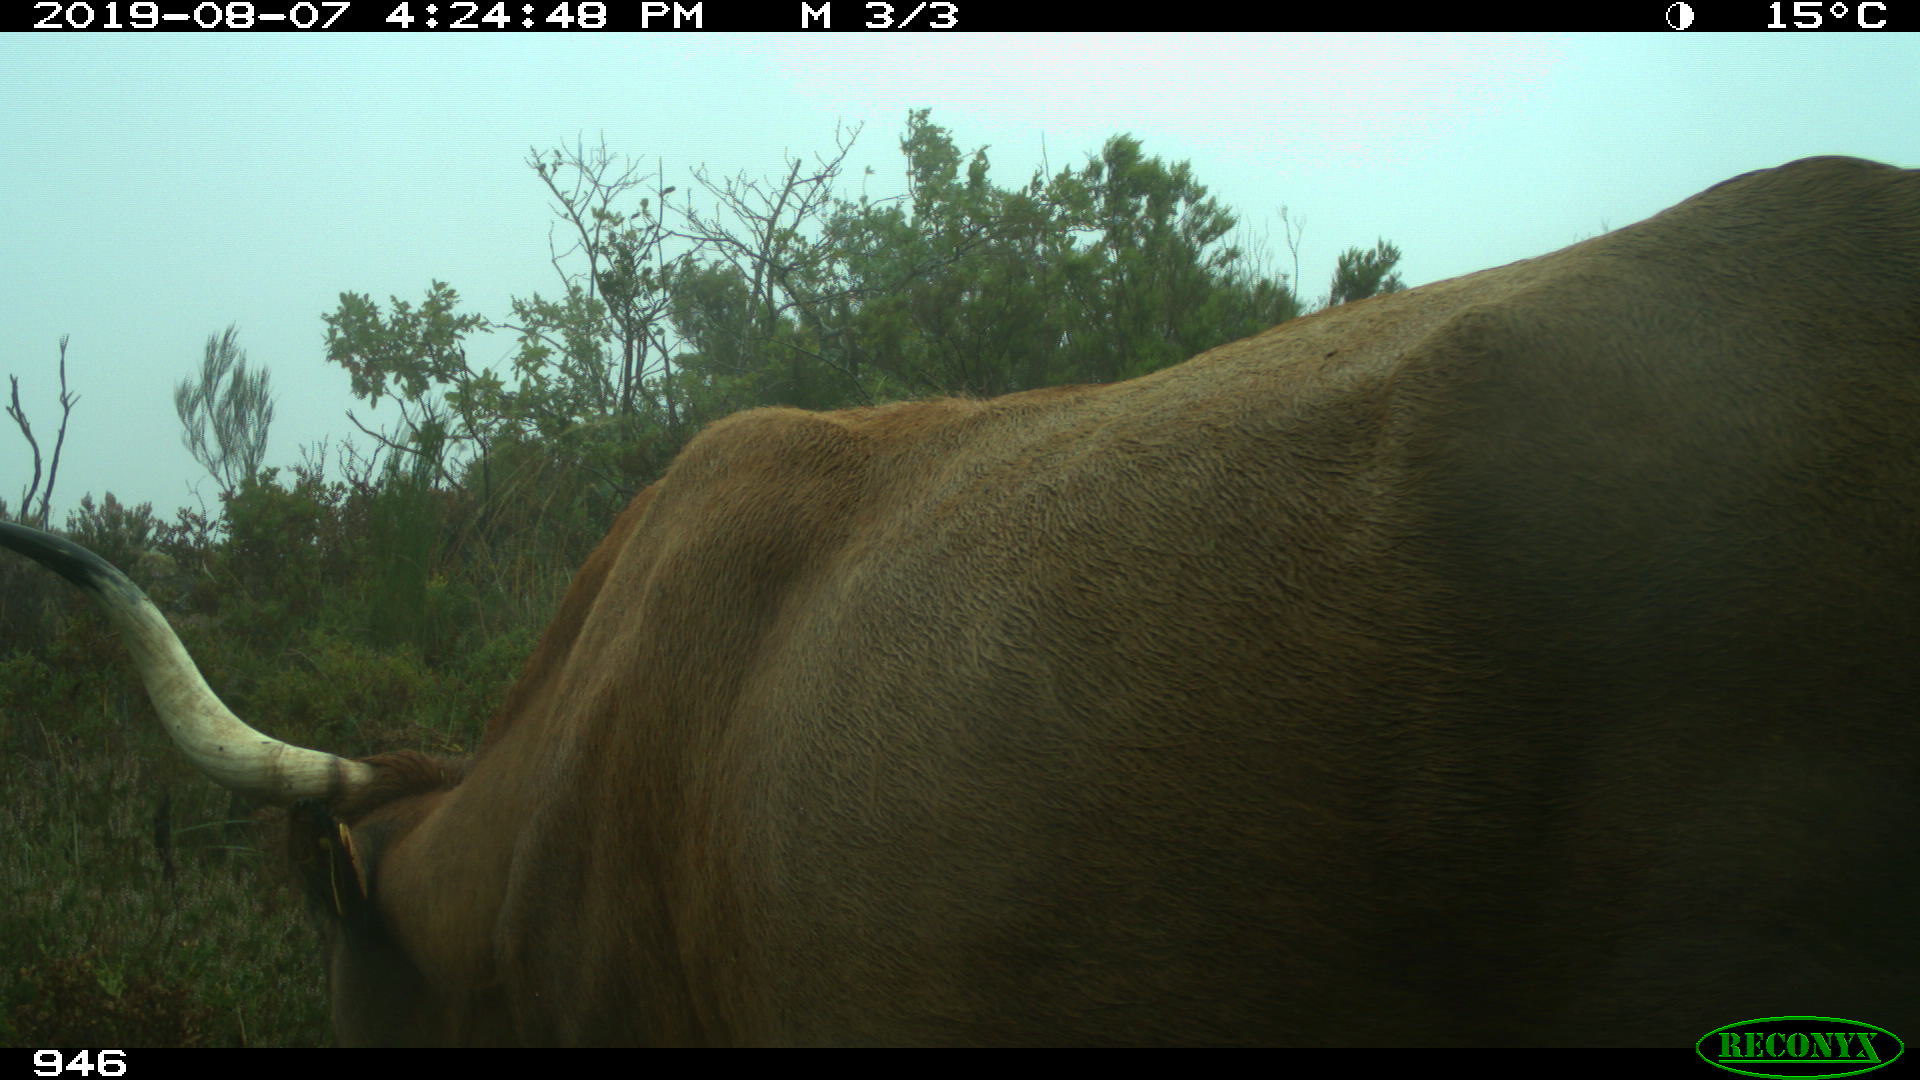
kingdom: Animalia
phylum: Chordata
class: Mammalia
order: Artiodactyla
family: Bovidae
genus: Bos
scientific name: Bos taurus
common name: Domesticated cattle
